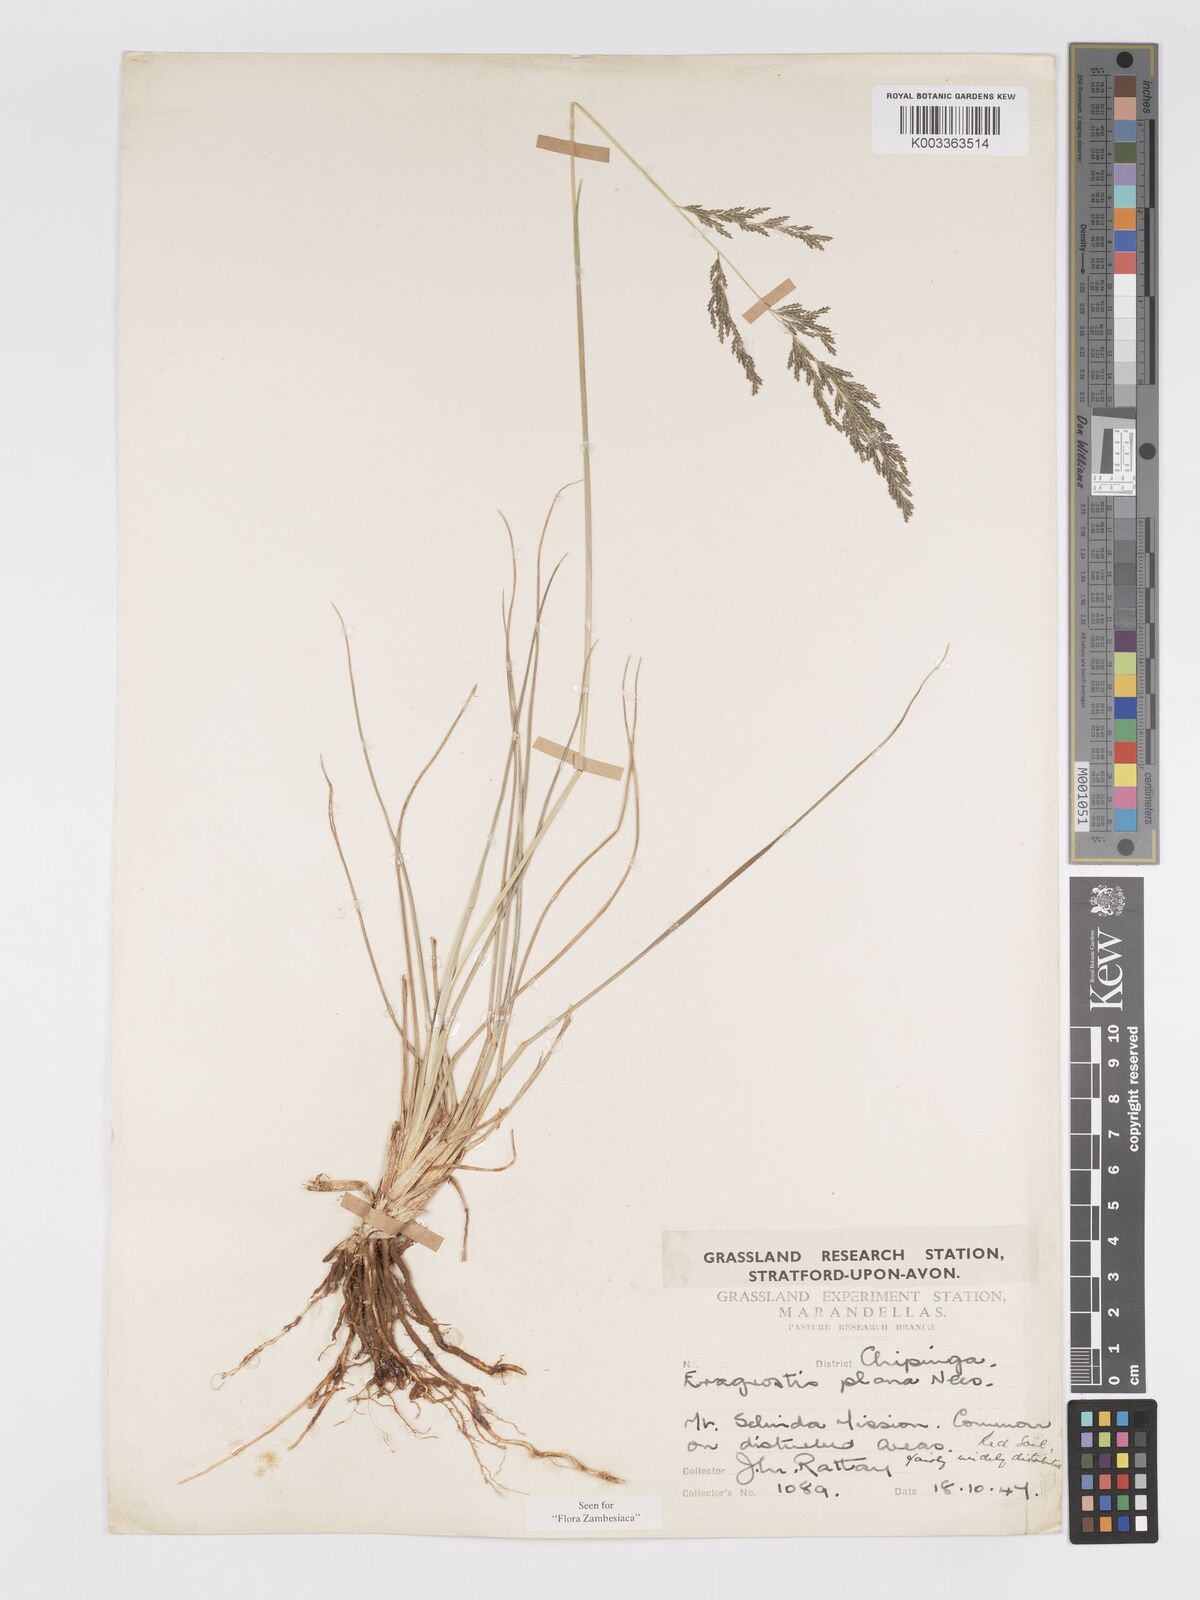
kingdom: Plantae
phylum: Tracheophyta
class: Liliopsida
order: Poales
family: Poaceae
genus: Eragrostis
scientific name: Eragrostis plana
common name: South african lovegrass
